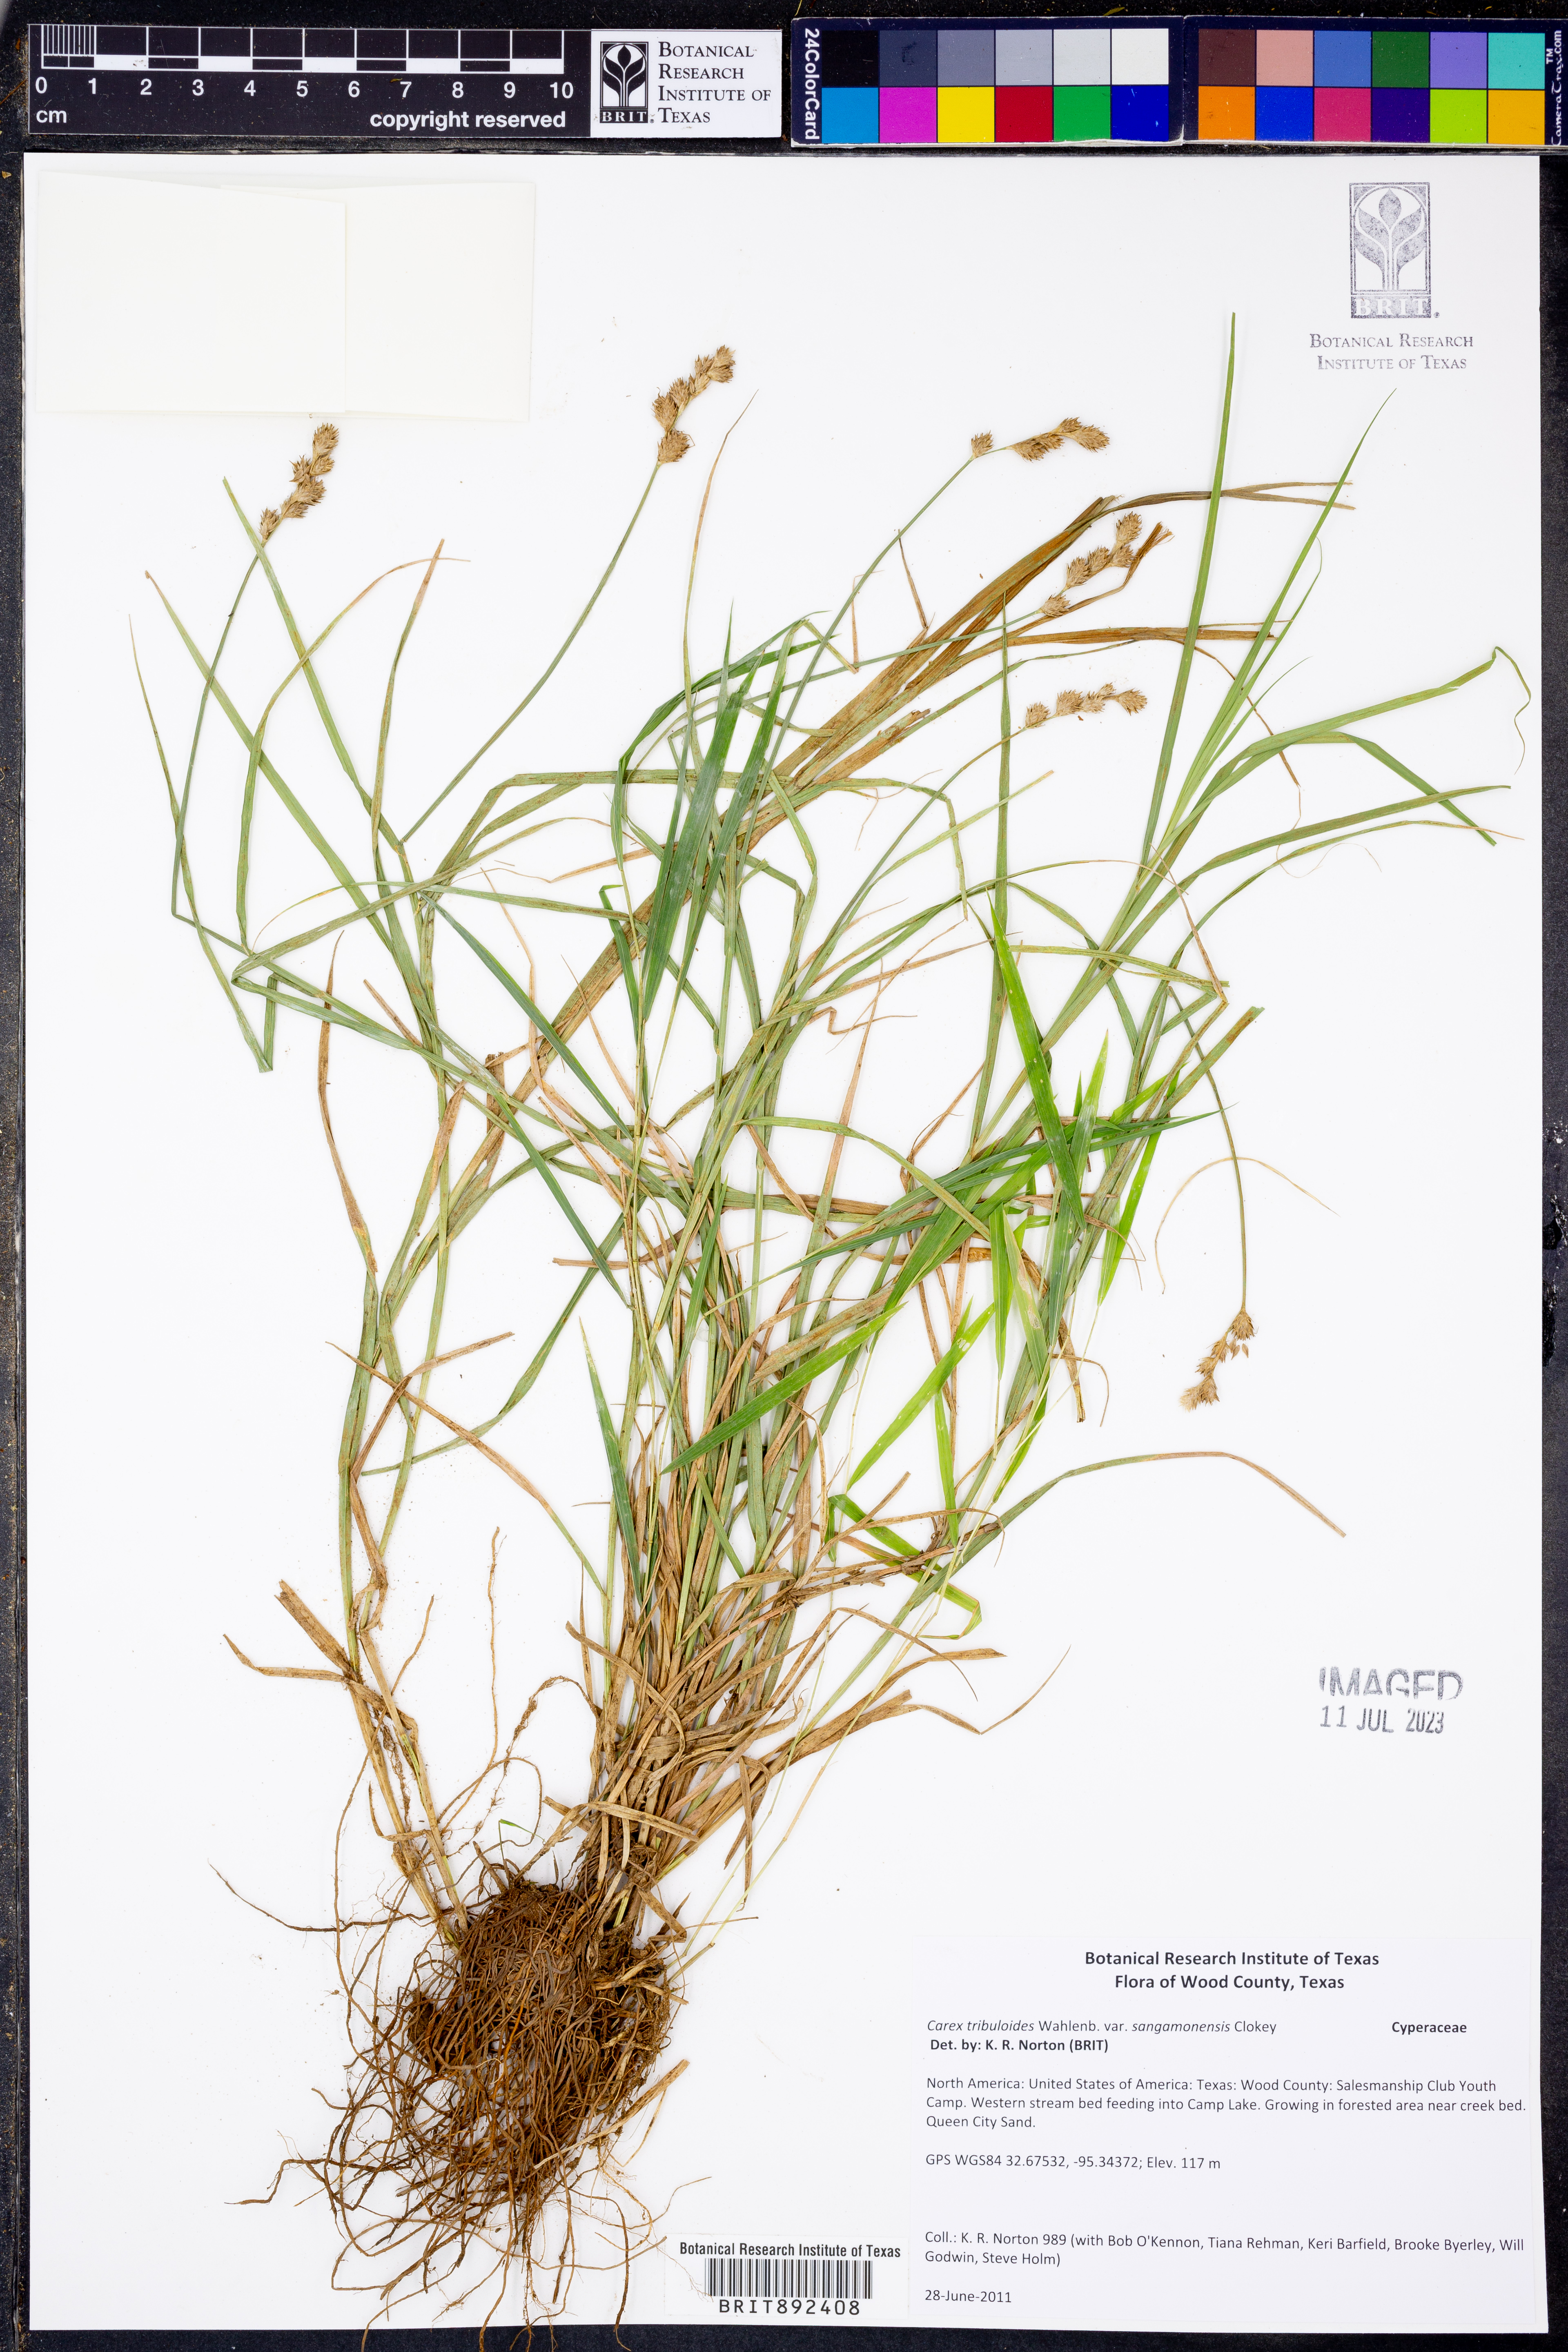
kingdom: Plantae
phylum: Tracheophyta
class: Liliopsida
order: Poales
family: Cyperaceae
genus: Carex
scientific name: Carex tribuloides
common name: Blunt broom sedge
